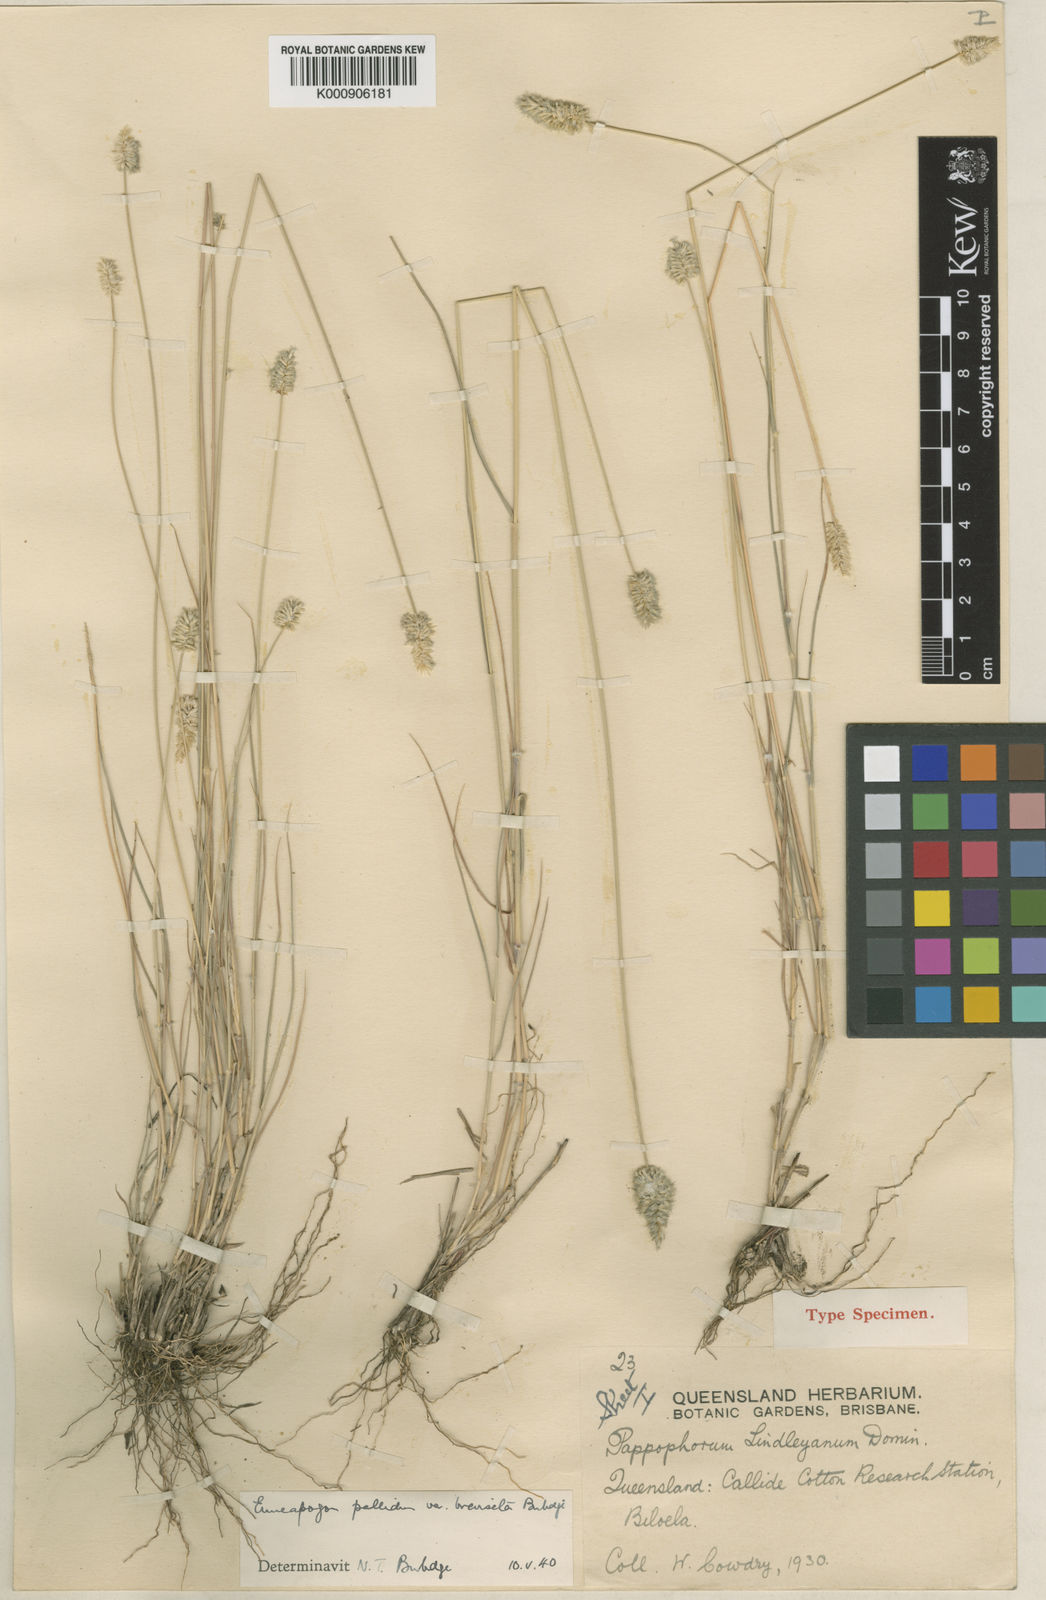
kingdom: Plantae
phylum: Tracheophyta
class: Liliopsida
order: Poales
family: Poaceae
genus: Enneapogon
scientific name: Enneapogon lindleyanus
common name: Conetop nineawn
